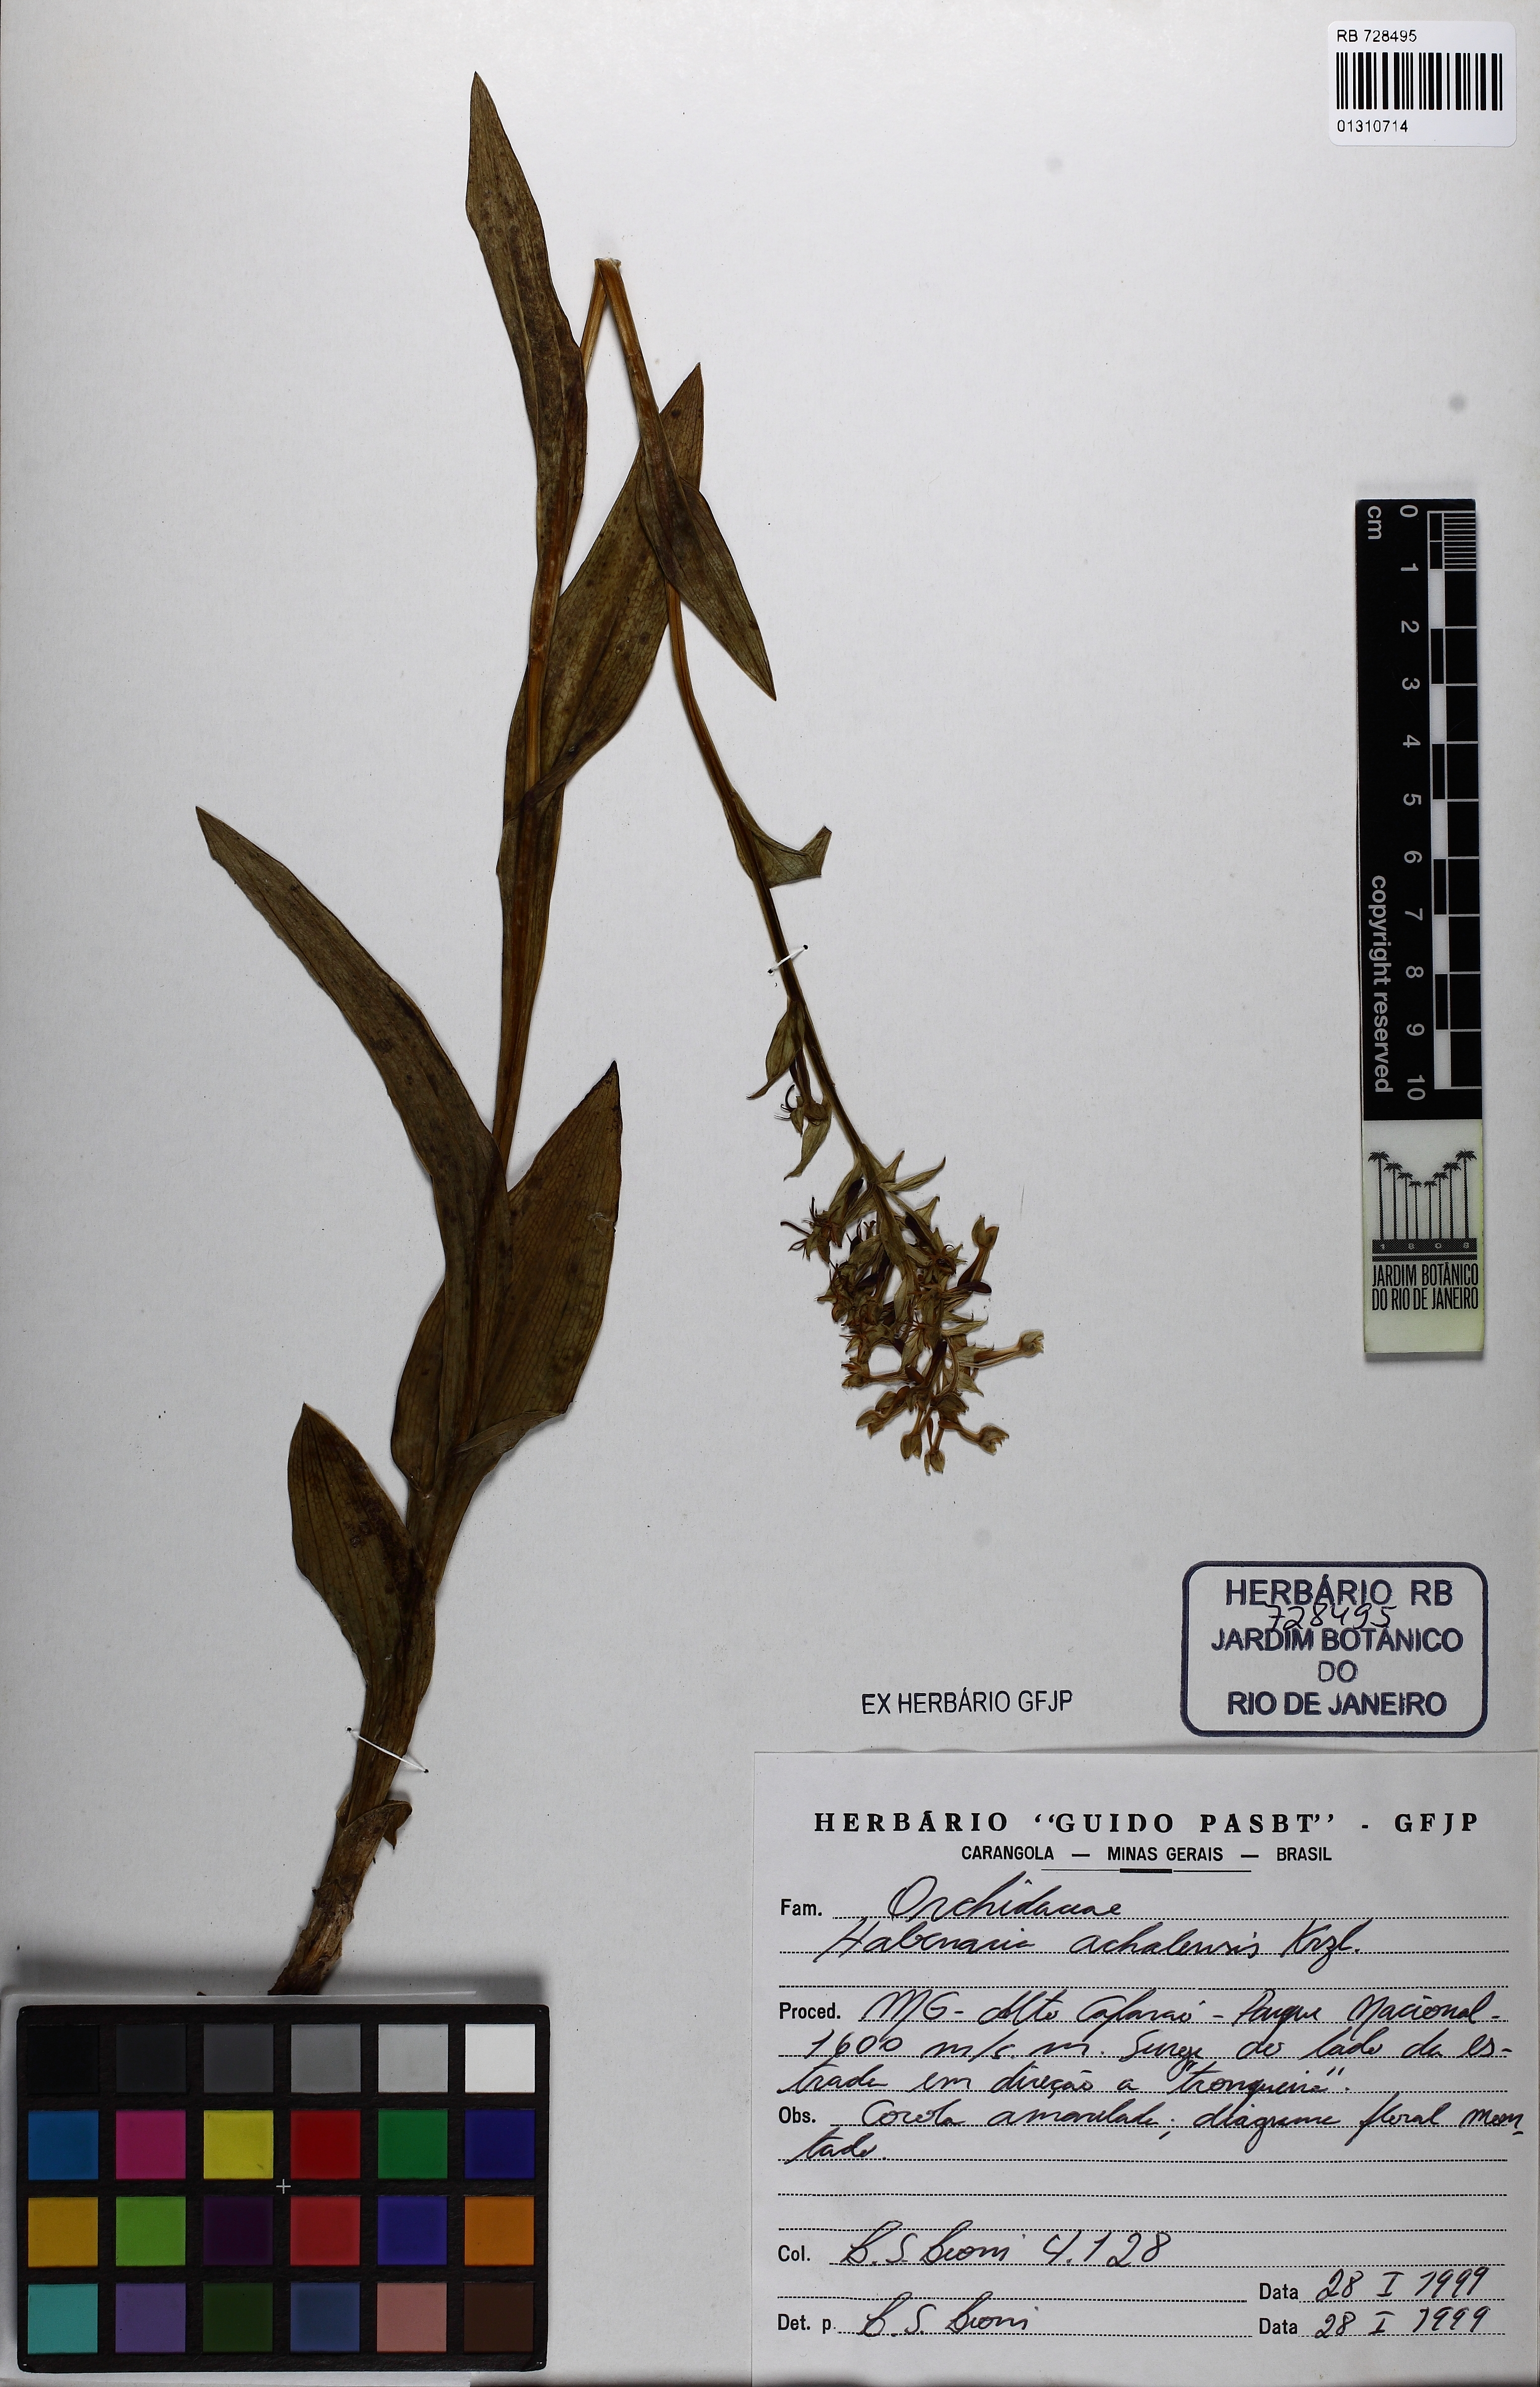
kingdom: Plantae
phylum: Tracheophyta
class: Liliopsida
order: Asparagales
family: Orchidaceae
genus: Habenaria
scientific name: Habenaria secunda
